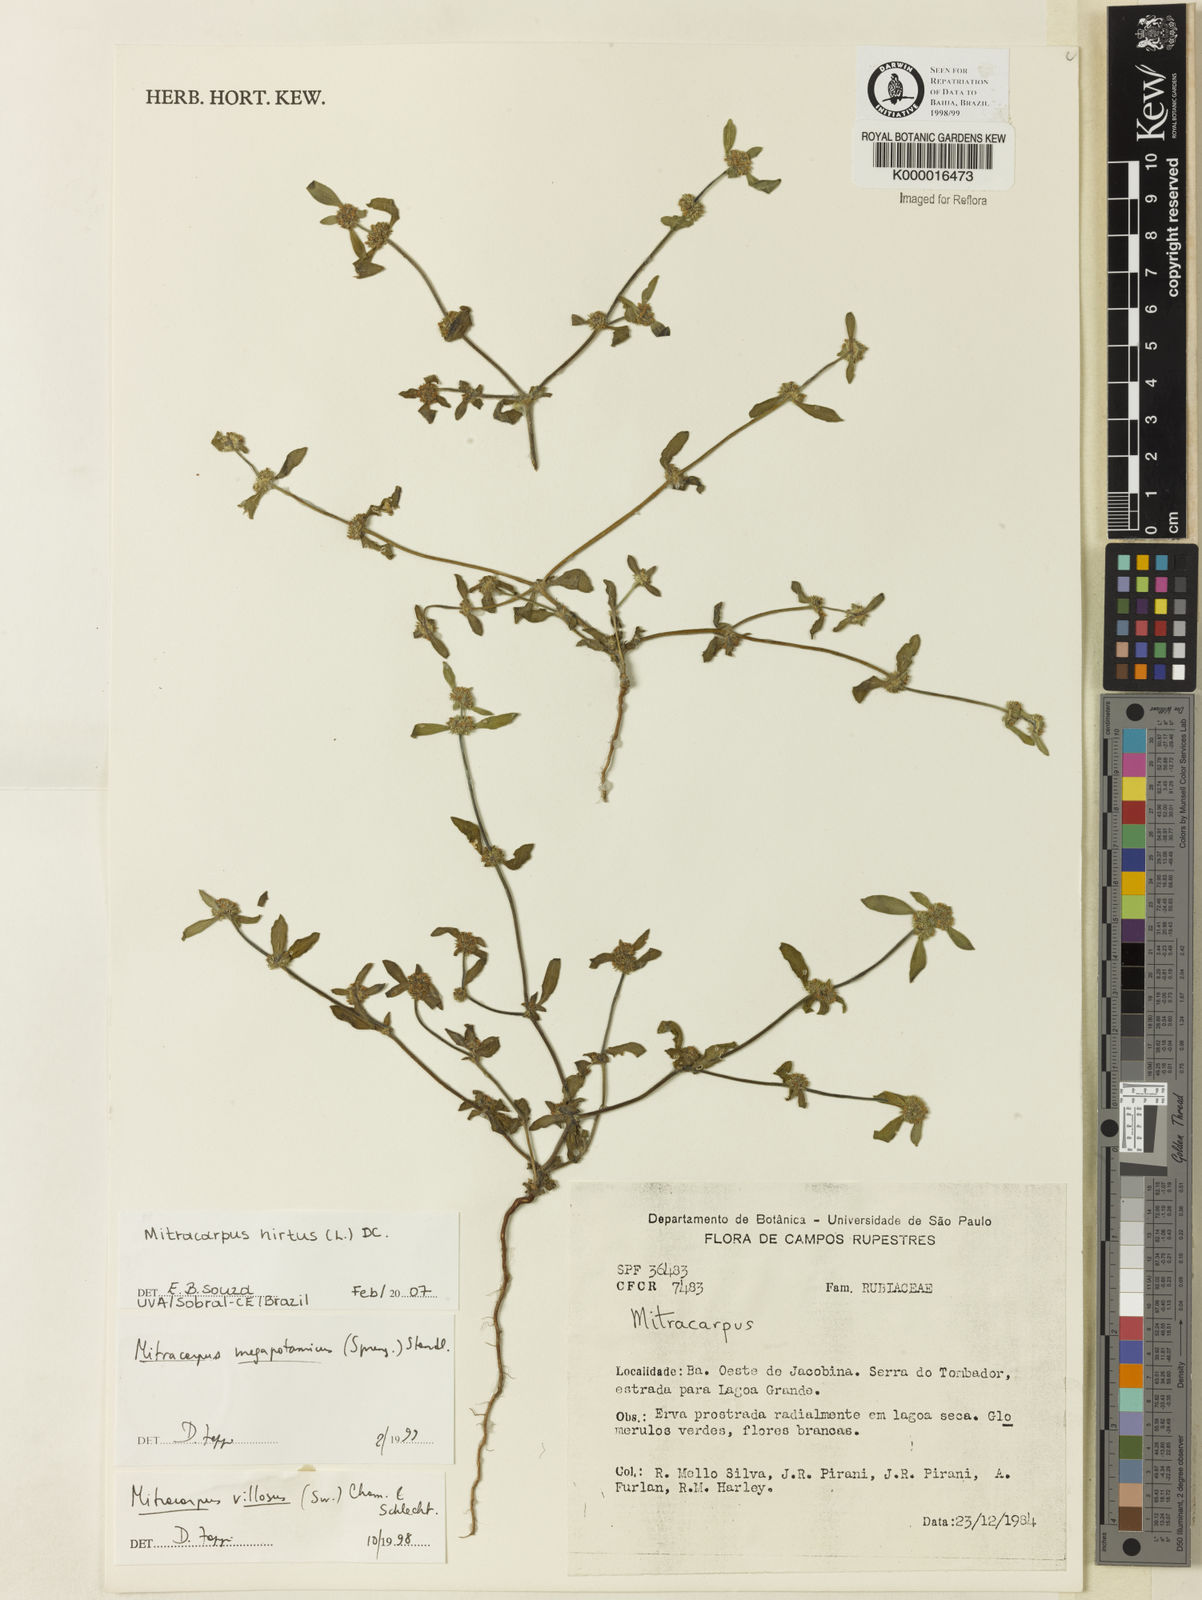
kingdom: Plantae
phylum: Tracheophyta
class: Magnoliopsida
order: Gentianales
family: Rubiaceae
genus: Mitracarpus
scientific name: Mitracarpus hirtus
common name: Tropical girdlepod
